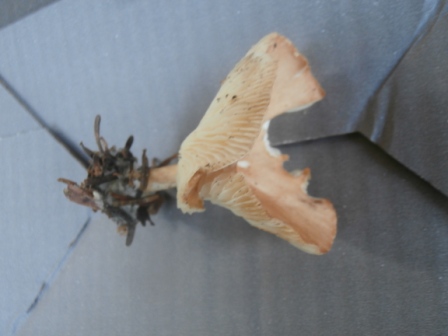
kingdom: Fungi
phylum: Basidiomycota
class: Agaricomycetes
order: Agaricales
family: Tricholomataceae
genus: Infundibulicybe
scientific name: Infundibulicybe gibba
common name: almindelig tragthat
